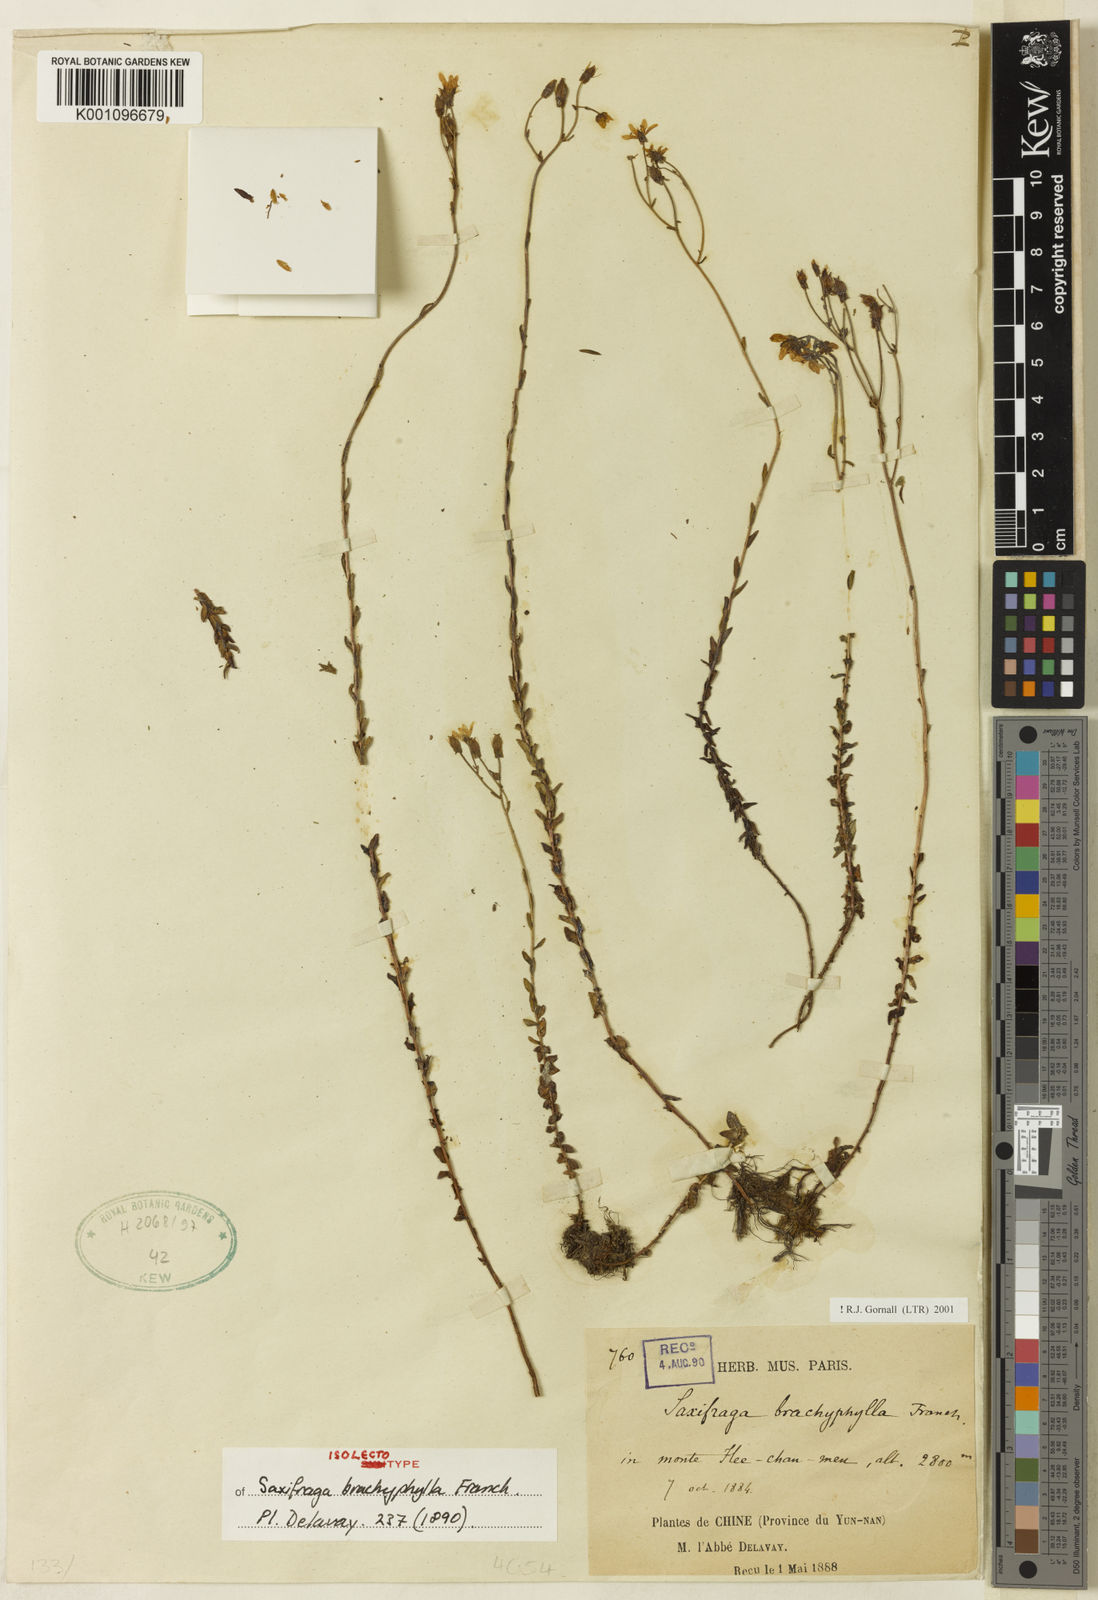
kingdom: Plantae
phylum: Tracheophyta
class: Magnoliopsida
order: Saxifragales
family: Saxifragaceae
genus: Saxifraga
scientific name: Saxifraga brachyphylla
